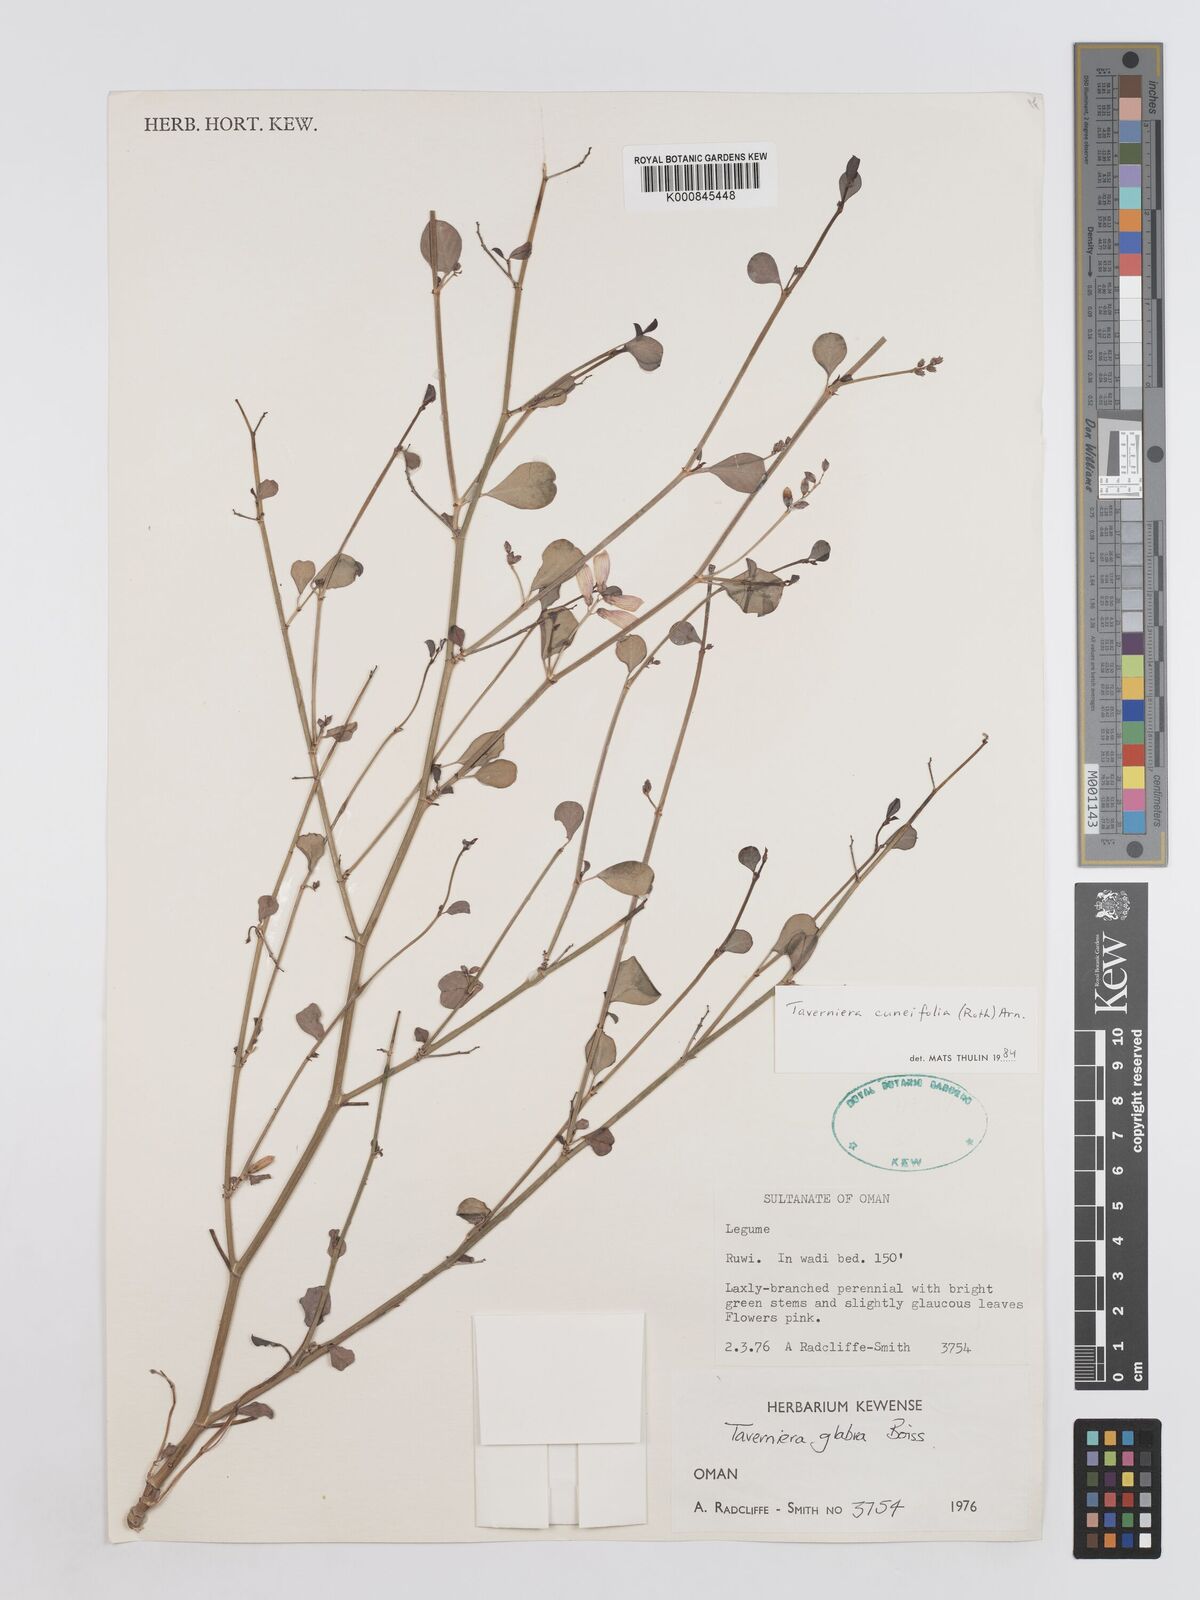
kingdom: Plantae
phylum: Tracheophyta
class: Magnoliopsida
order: Fabales
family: Fabaceae
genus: Taverniera
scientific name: Taverniera
